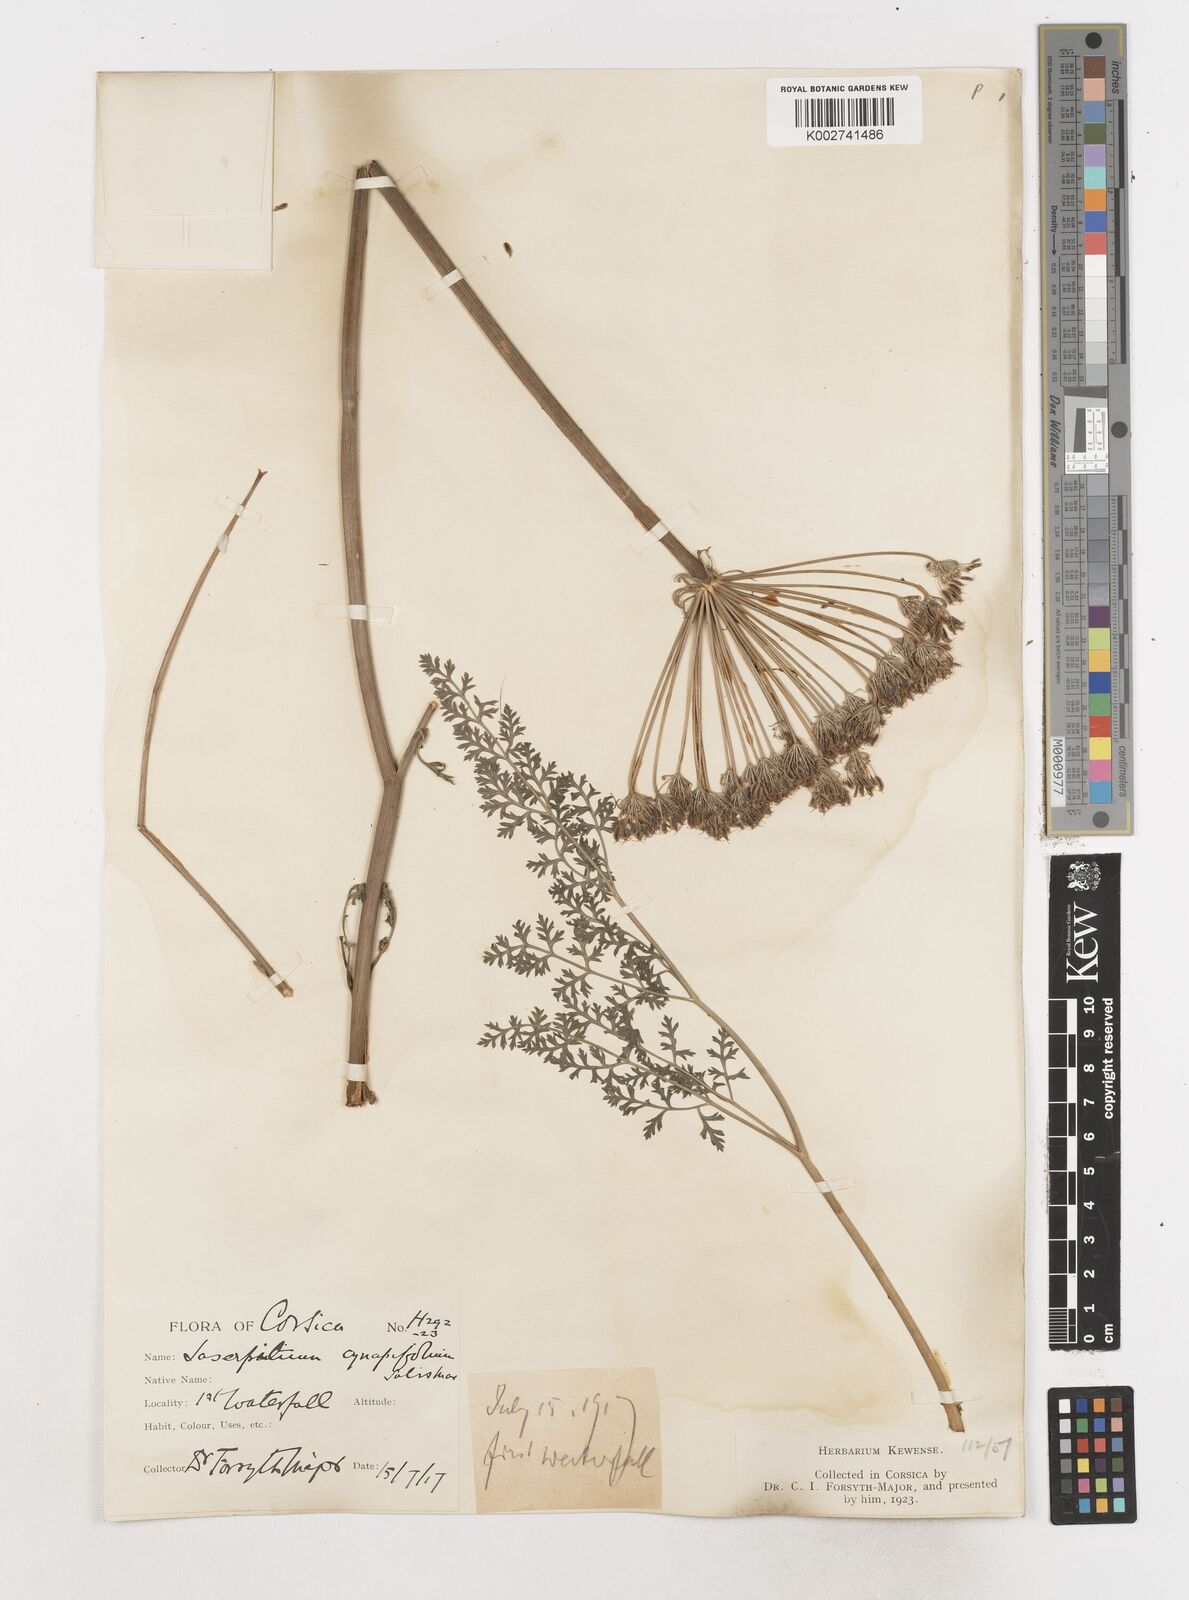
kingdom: Plantae
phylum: Tracheophyta
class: Magnoliopsida
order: Apiales
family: Apiaceae
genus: Laserpitium
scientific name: Laserpitium halleri
